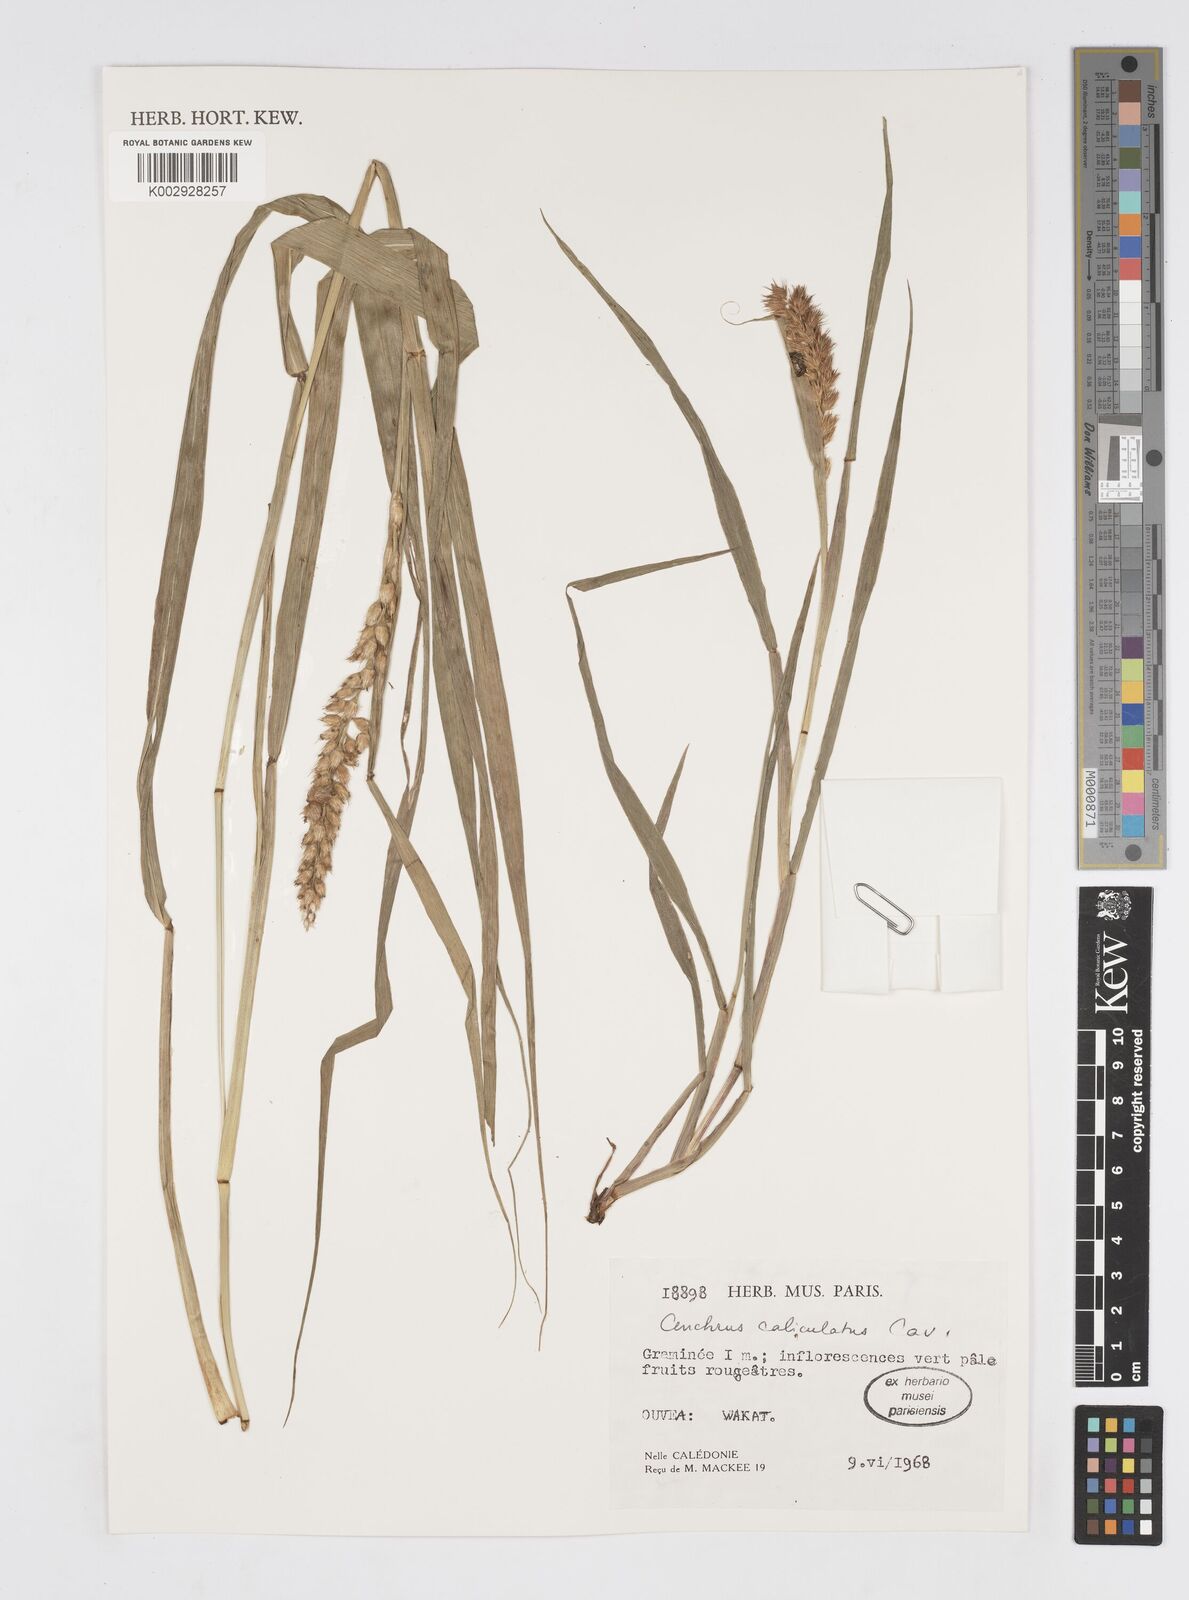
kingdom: Plantae
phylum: Tracheophyta
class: Liliopsida
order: Poales
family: Poaceae
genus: Cenchrus
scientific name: Cenchrus caliculatus
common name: Large bur grass
